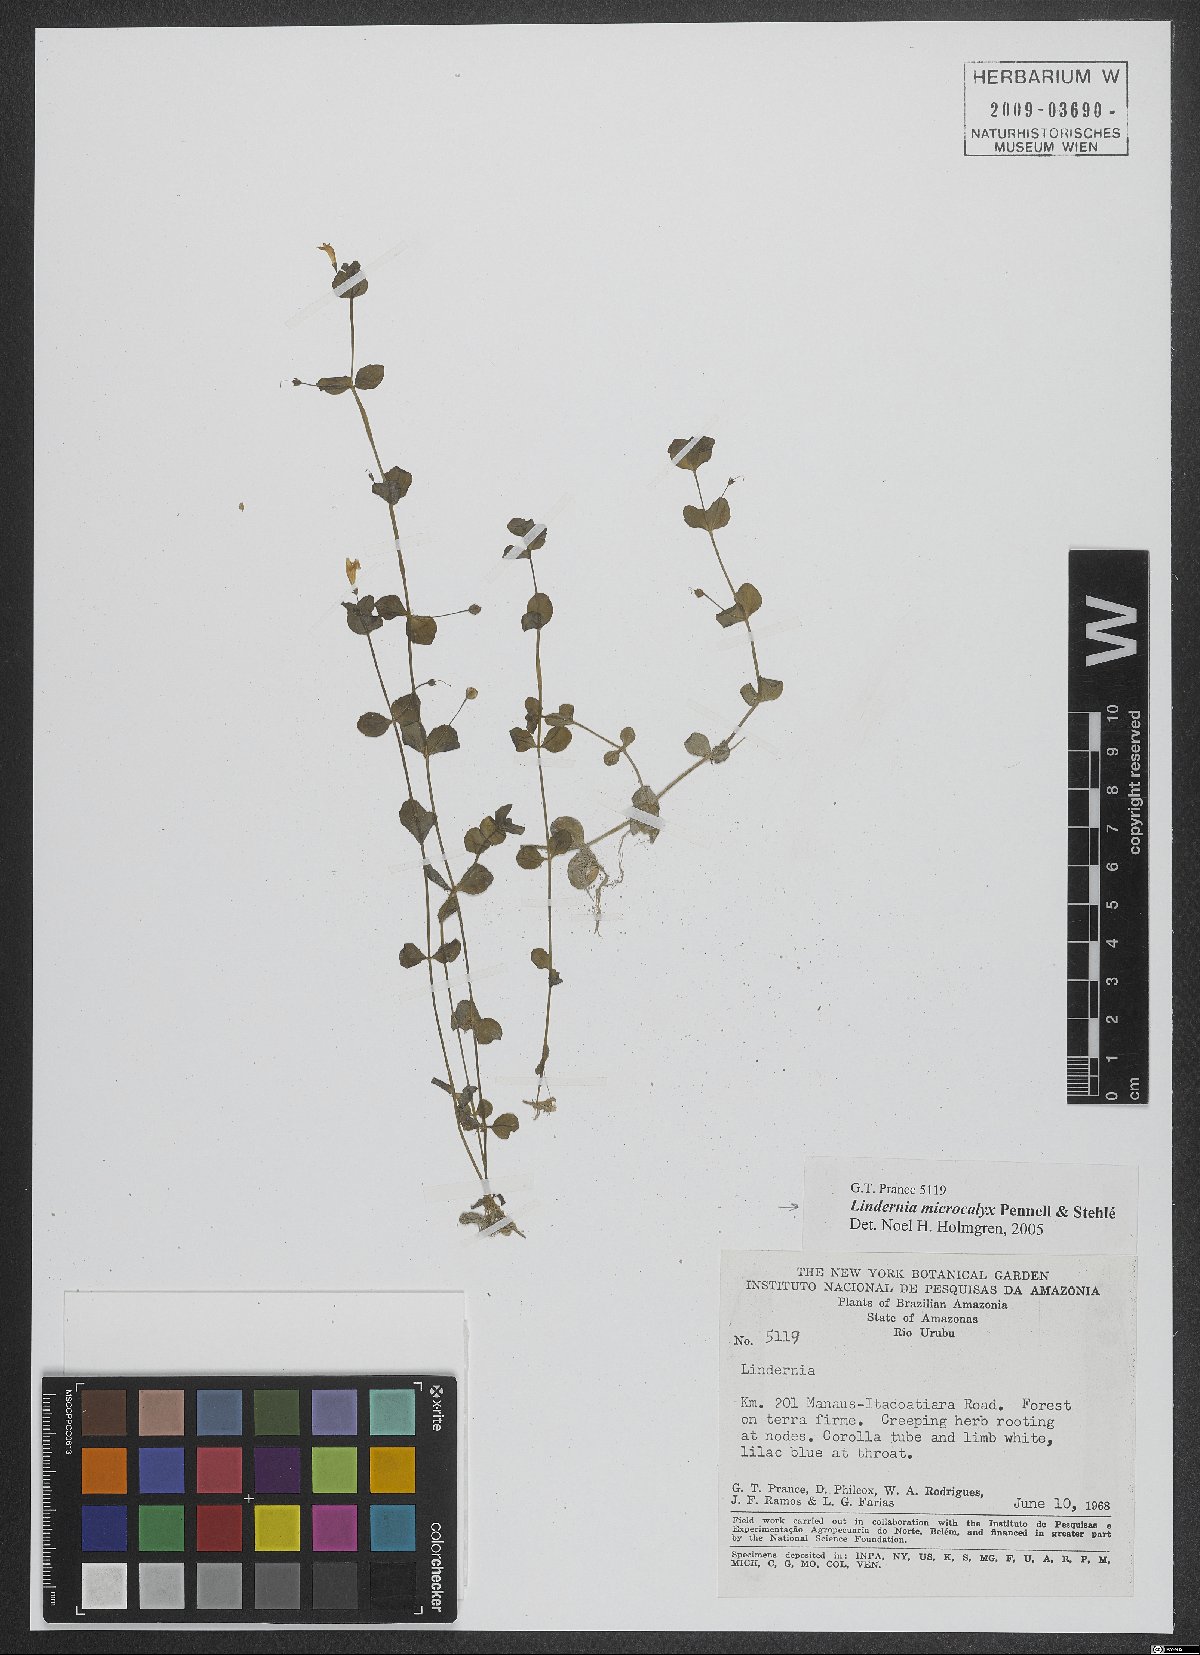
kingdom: Plantae
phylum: Tracheophyta
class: Magnoliopsida
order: Lamiales
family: Linderniaceae
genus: Lindernia
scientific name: Lindernia rotundifolia
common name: Baby’s tears
